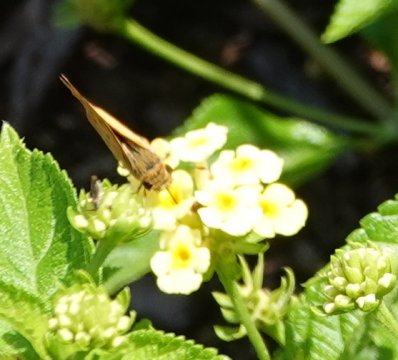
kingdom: Animalia
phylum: Arthropoda
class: Insecta
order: Lepidoptera
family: Hesperiidae
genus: Hylephila
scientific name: Hylephila phyleus
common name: Fiery Skipper
